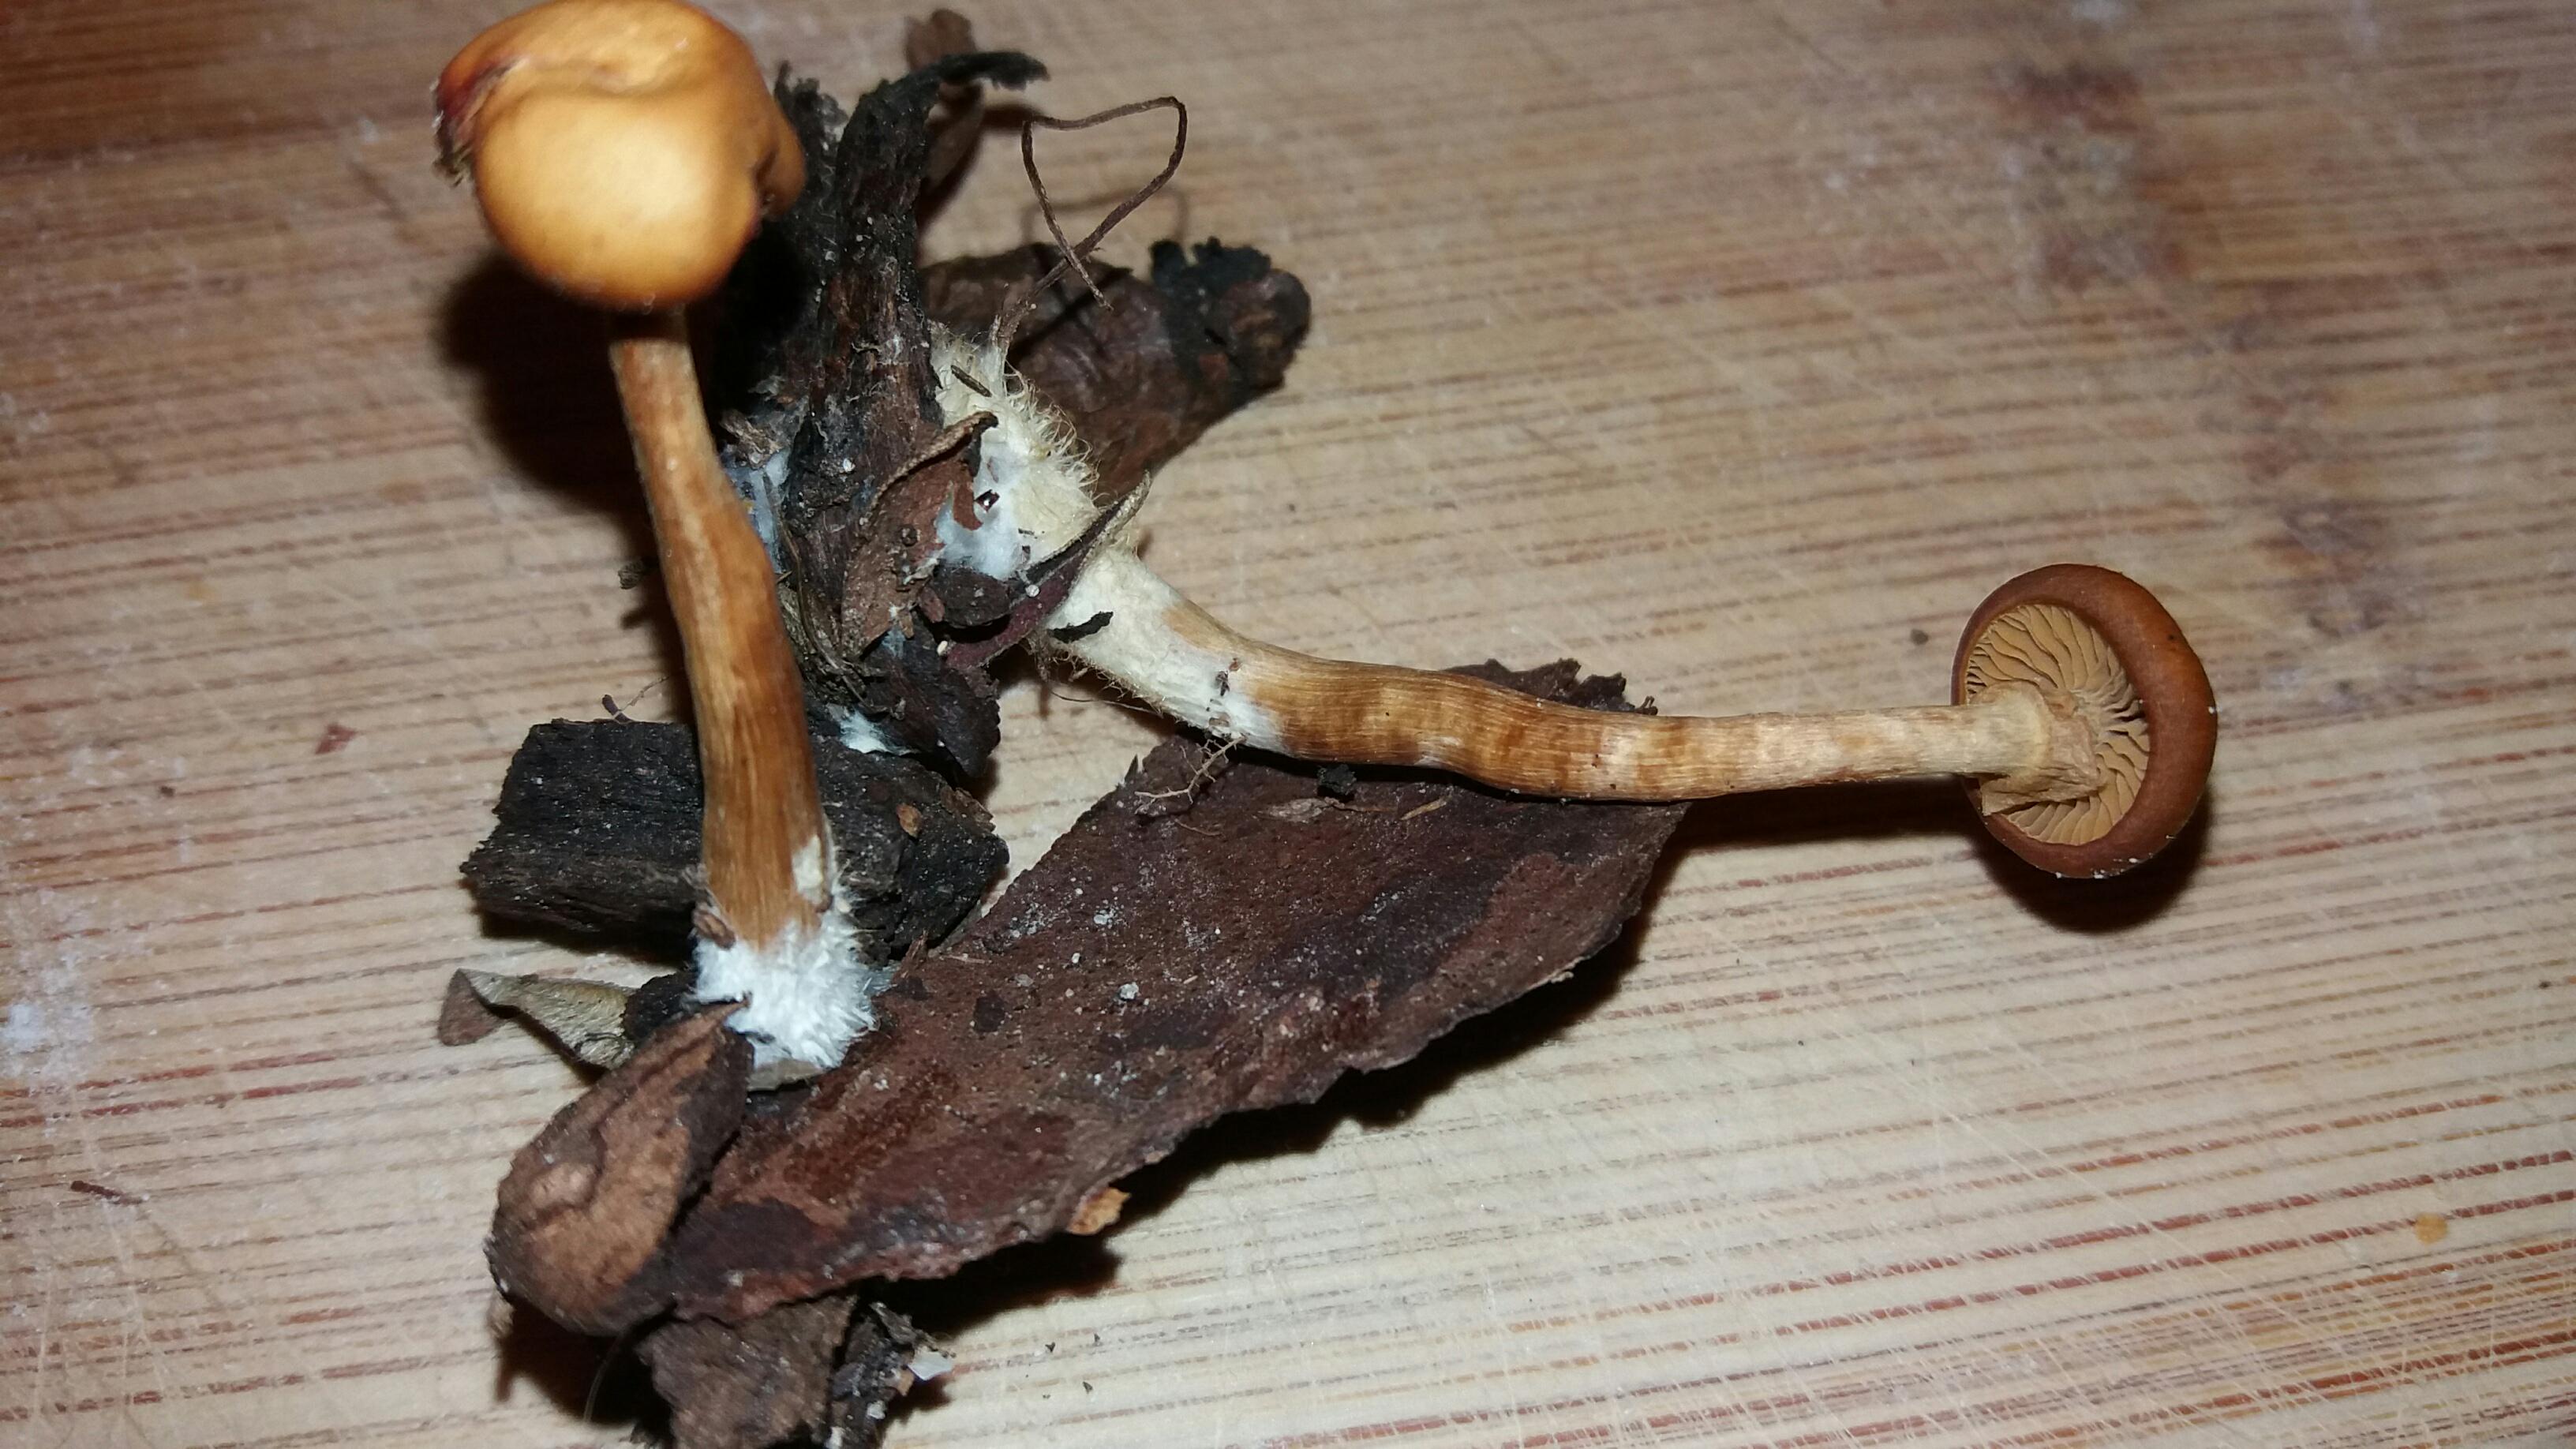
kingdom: Fungi
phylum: Basidiomycota
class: Agaricomycetes
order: Agaricales
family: Hymenogastraceae
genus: Galerina
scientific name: Galerina marginata
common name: randbæltet hjelmhat
